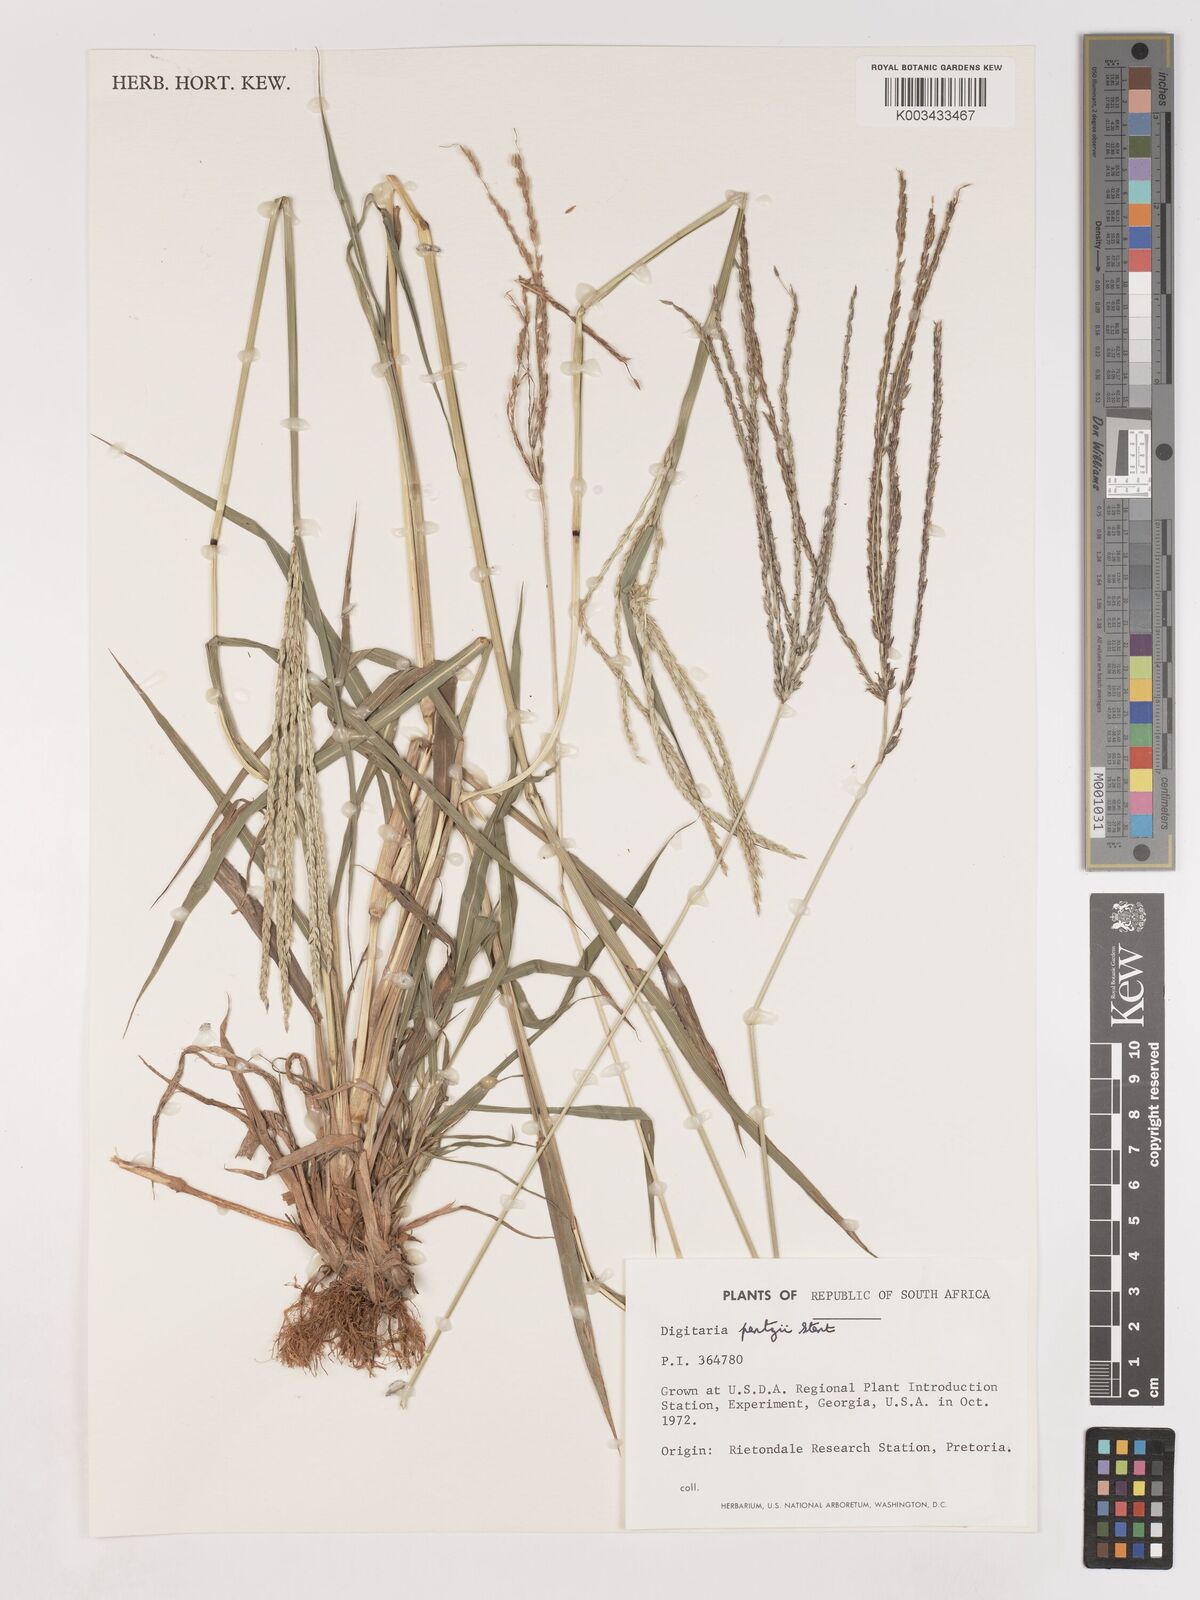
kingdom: Plantae
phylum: Tracheophyta
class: Liliopsida
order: Poales
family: Poaceae
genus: Digitaria
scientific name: Digitaria eriantha
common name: Digitgrass
